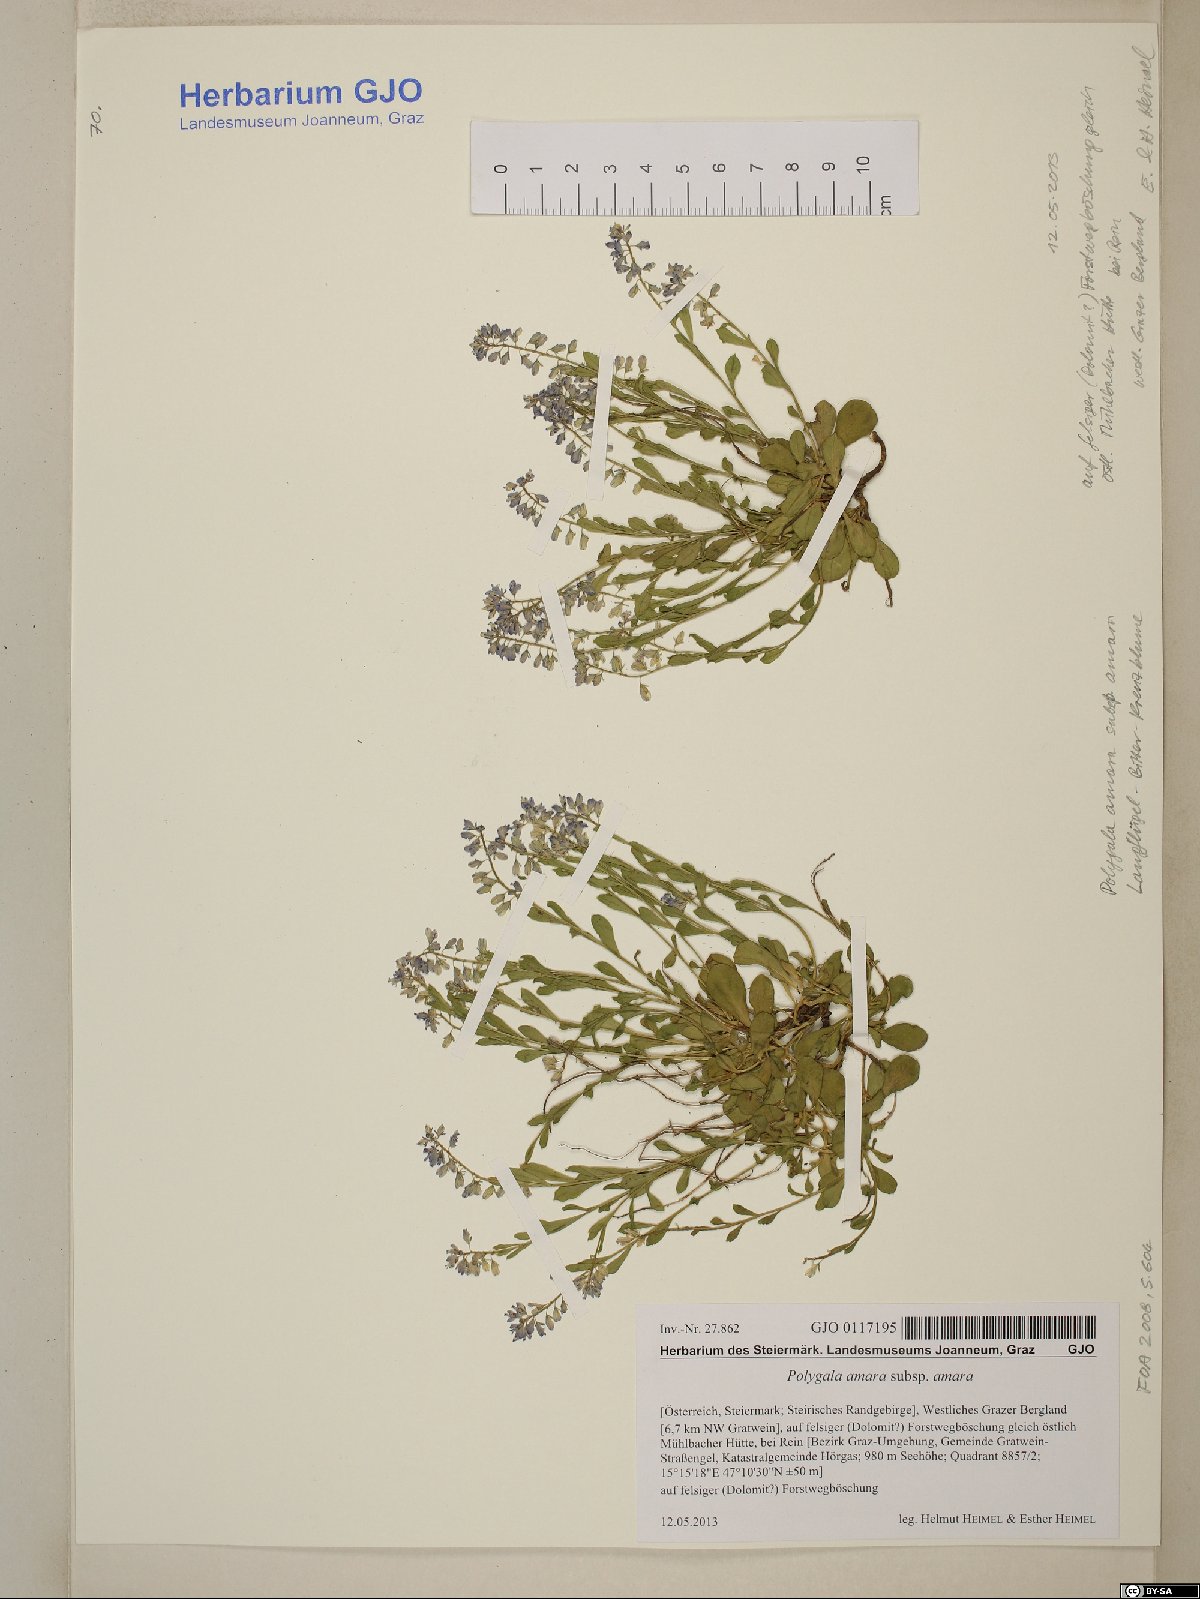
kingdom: Plantae
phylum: Tracheophyta
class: Magnoliopsida
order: Fabales
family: Polygalaceae
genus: Polygala
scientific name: Polygala amara
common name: Milkwort
